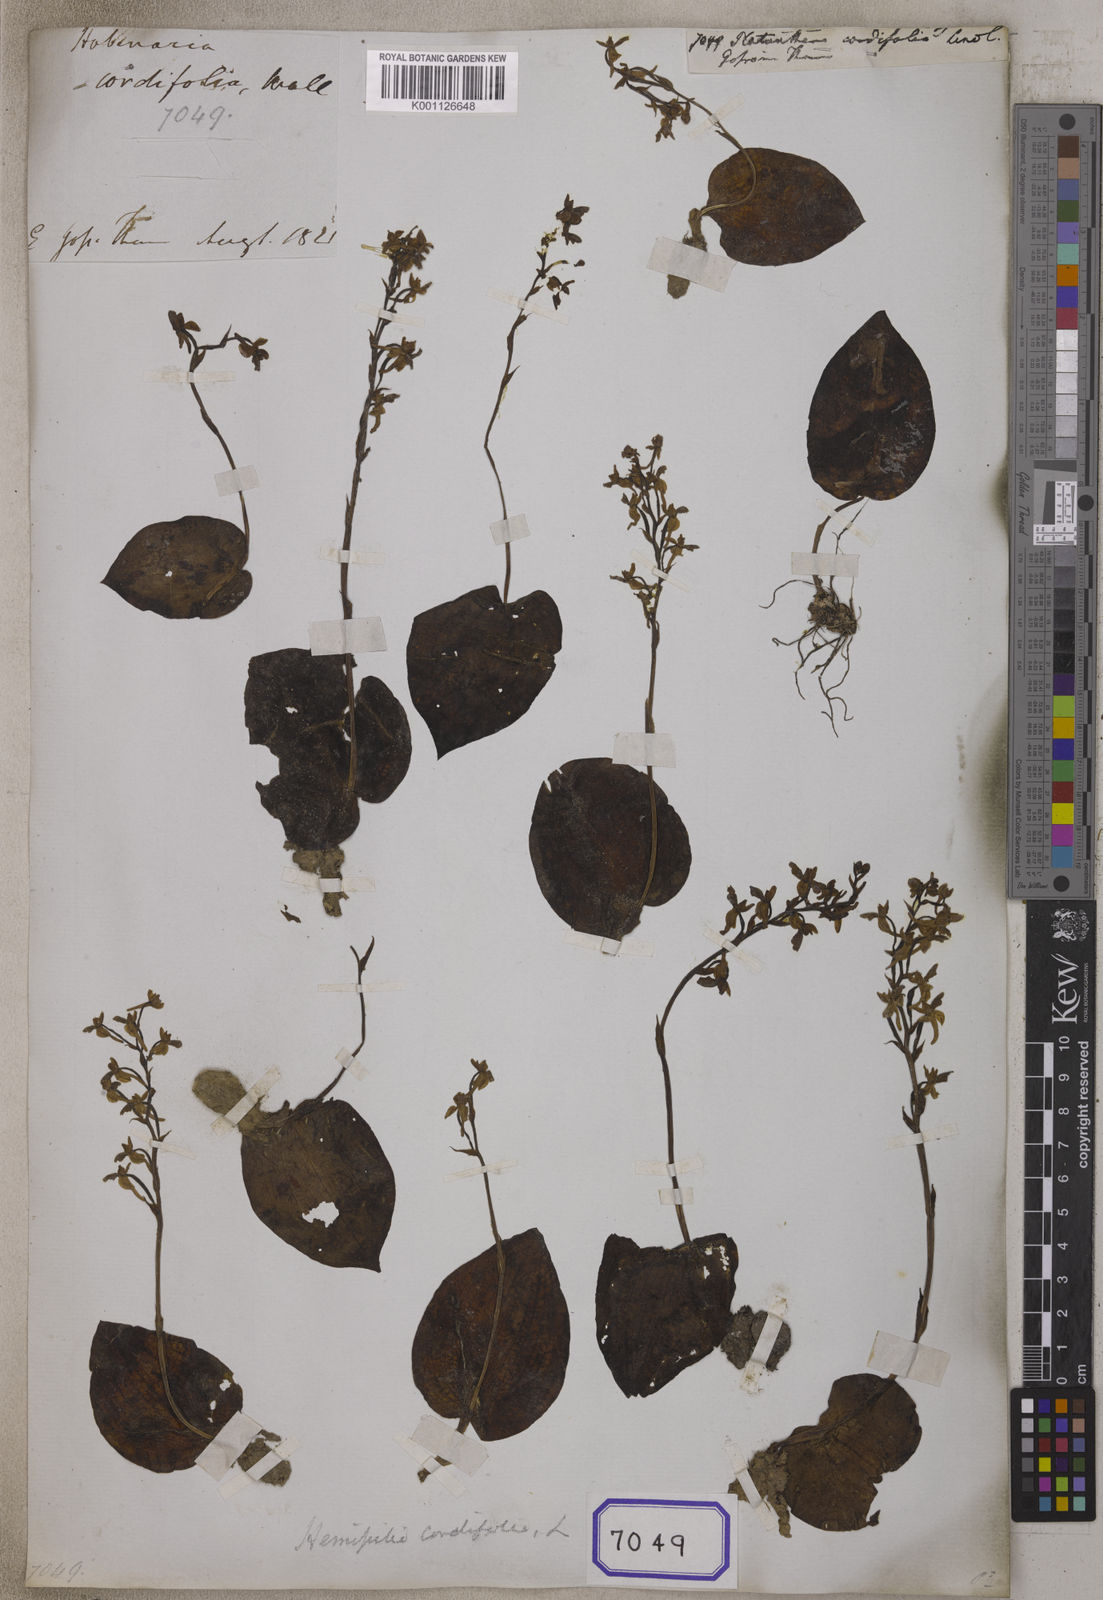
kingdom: Plantae
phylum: Tracheophyta
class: Liliopsida
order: Asparagales
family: Orchidaceae
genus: Platanthera
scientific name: Platanthera
